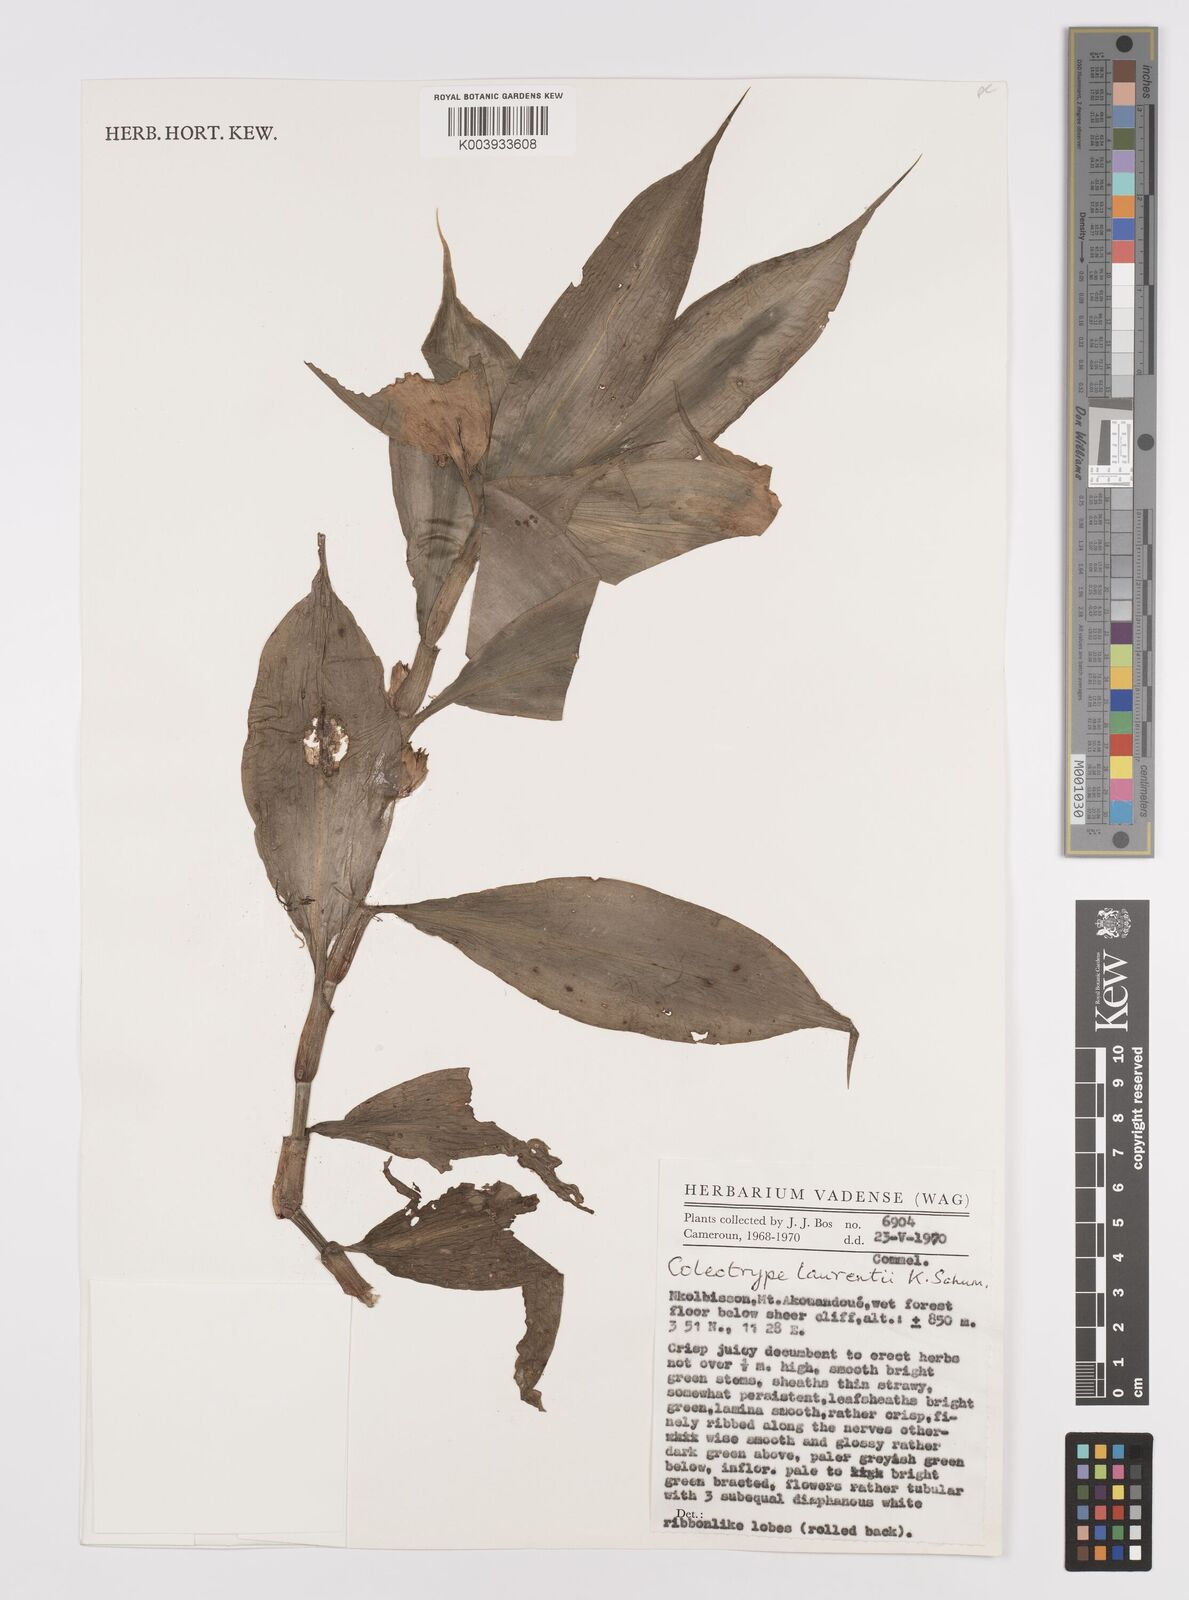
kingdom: Plantae
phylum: Tracheophyta
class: Liliopsida
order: Commelinales
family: Commelinaceae
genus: Coleotrype
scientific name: Coleotrype laurentii
